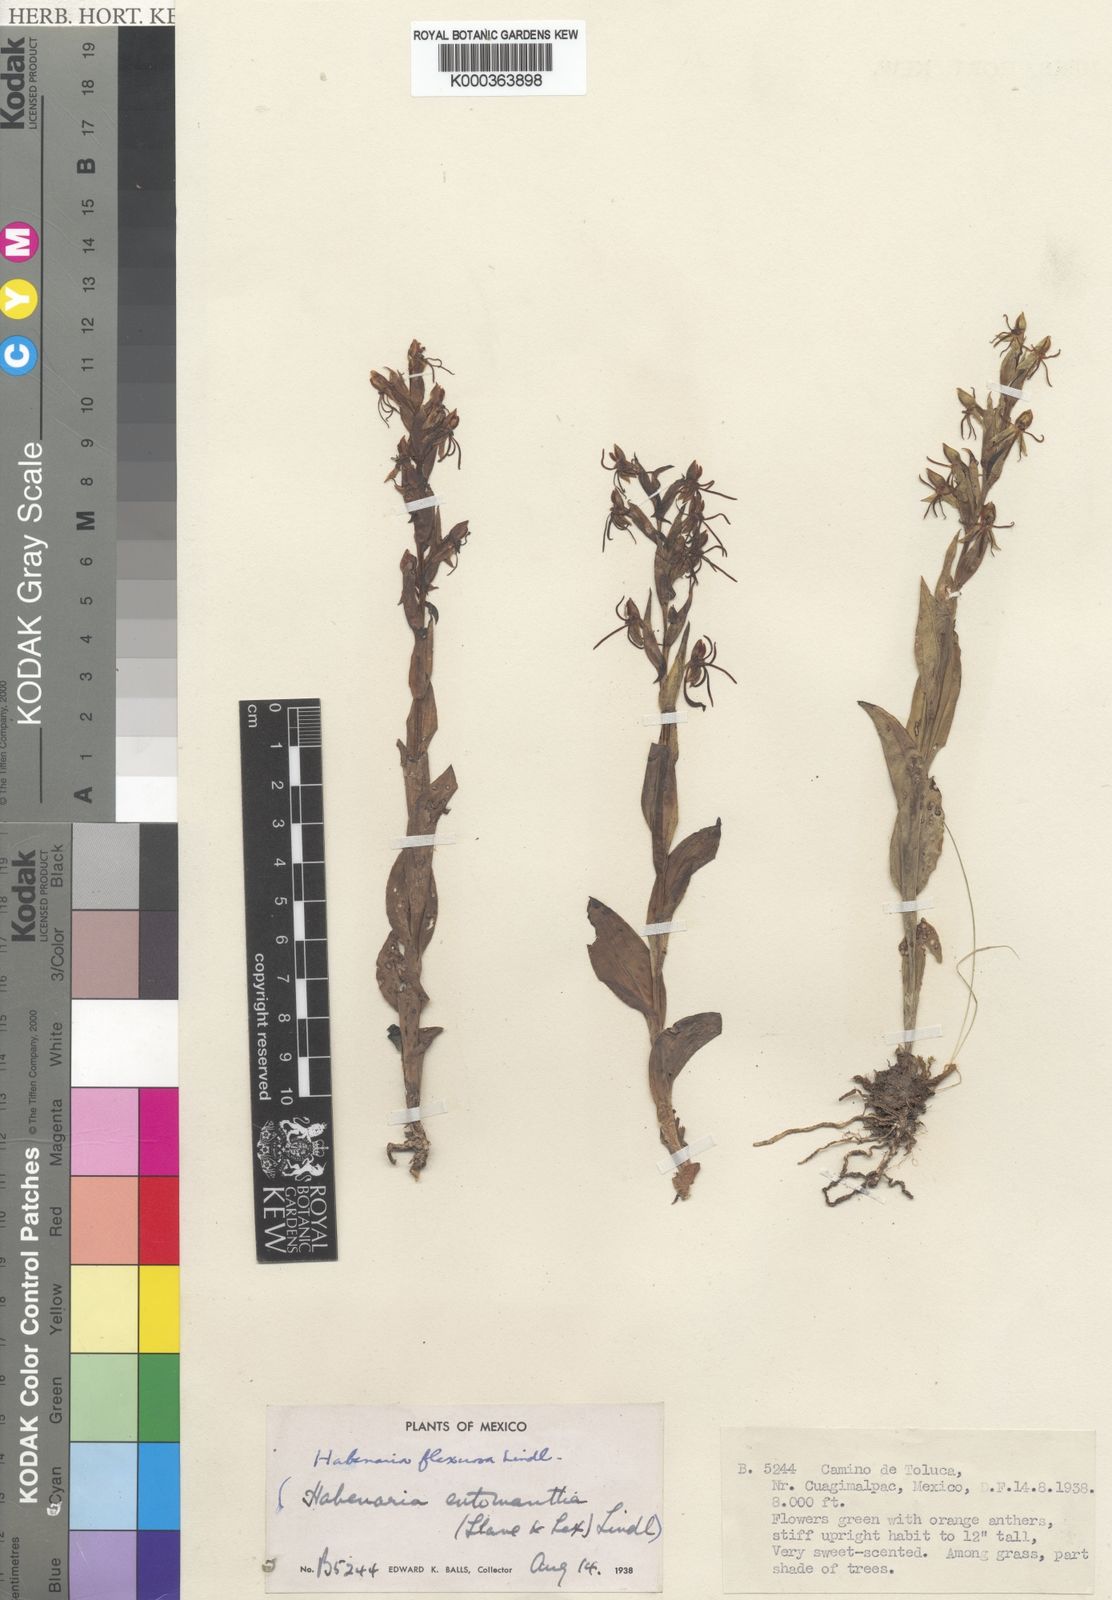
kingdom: Plantae
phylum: Tracheophyta
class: Liliopsida
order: Asparagales
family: Orchidaceae
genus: Habenaria
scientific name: Habenaria flexuosa
